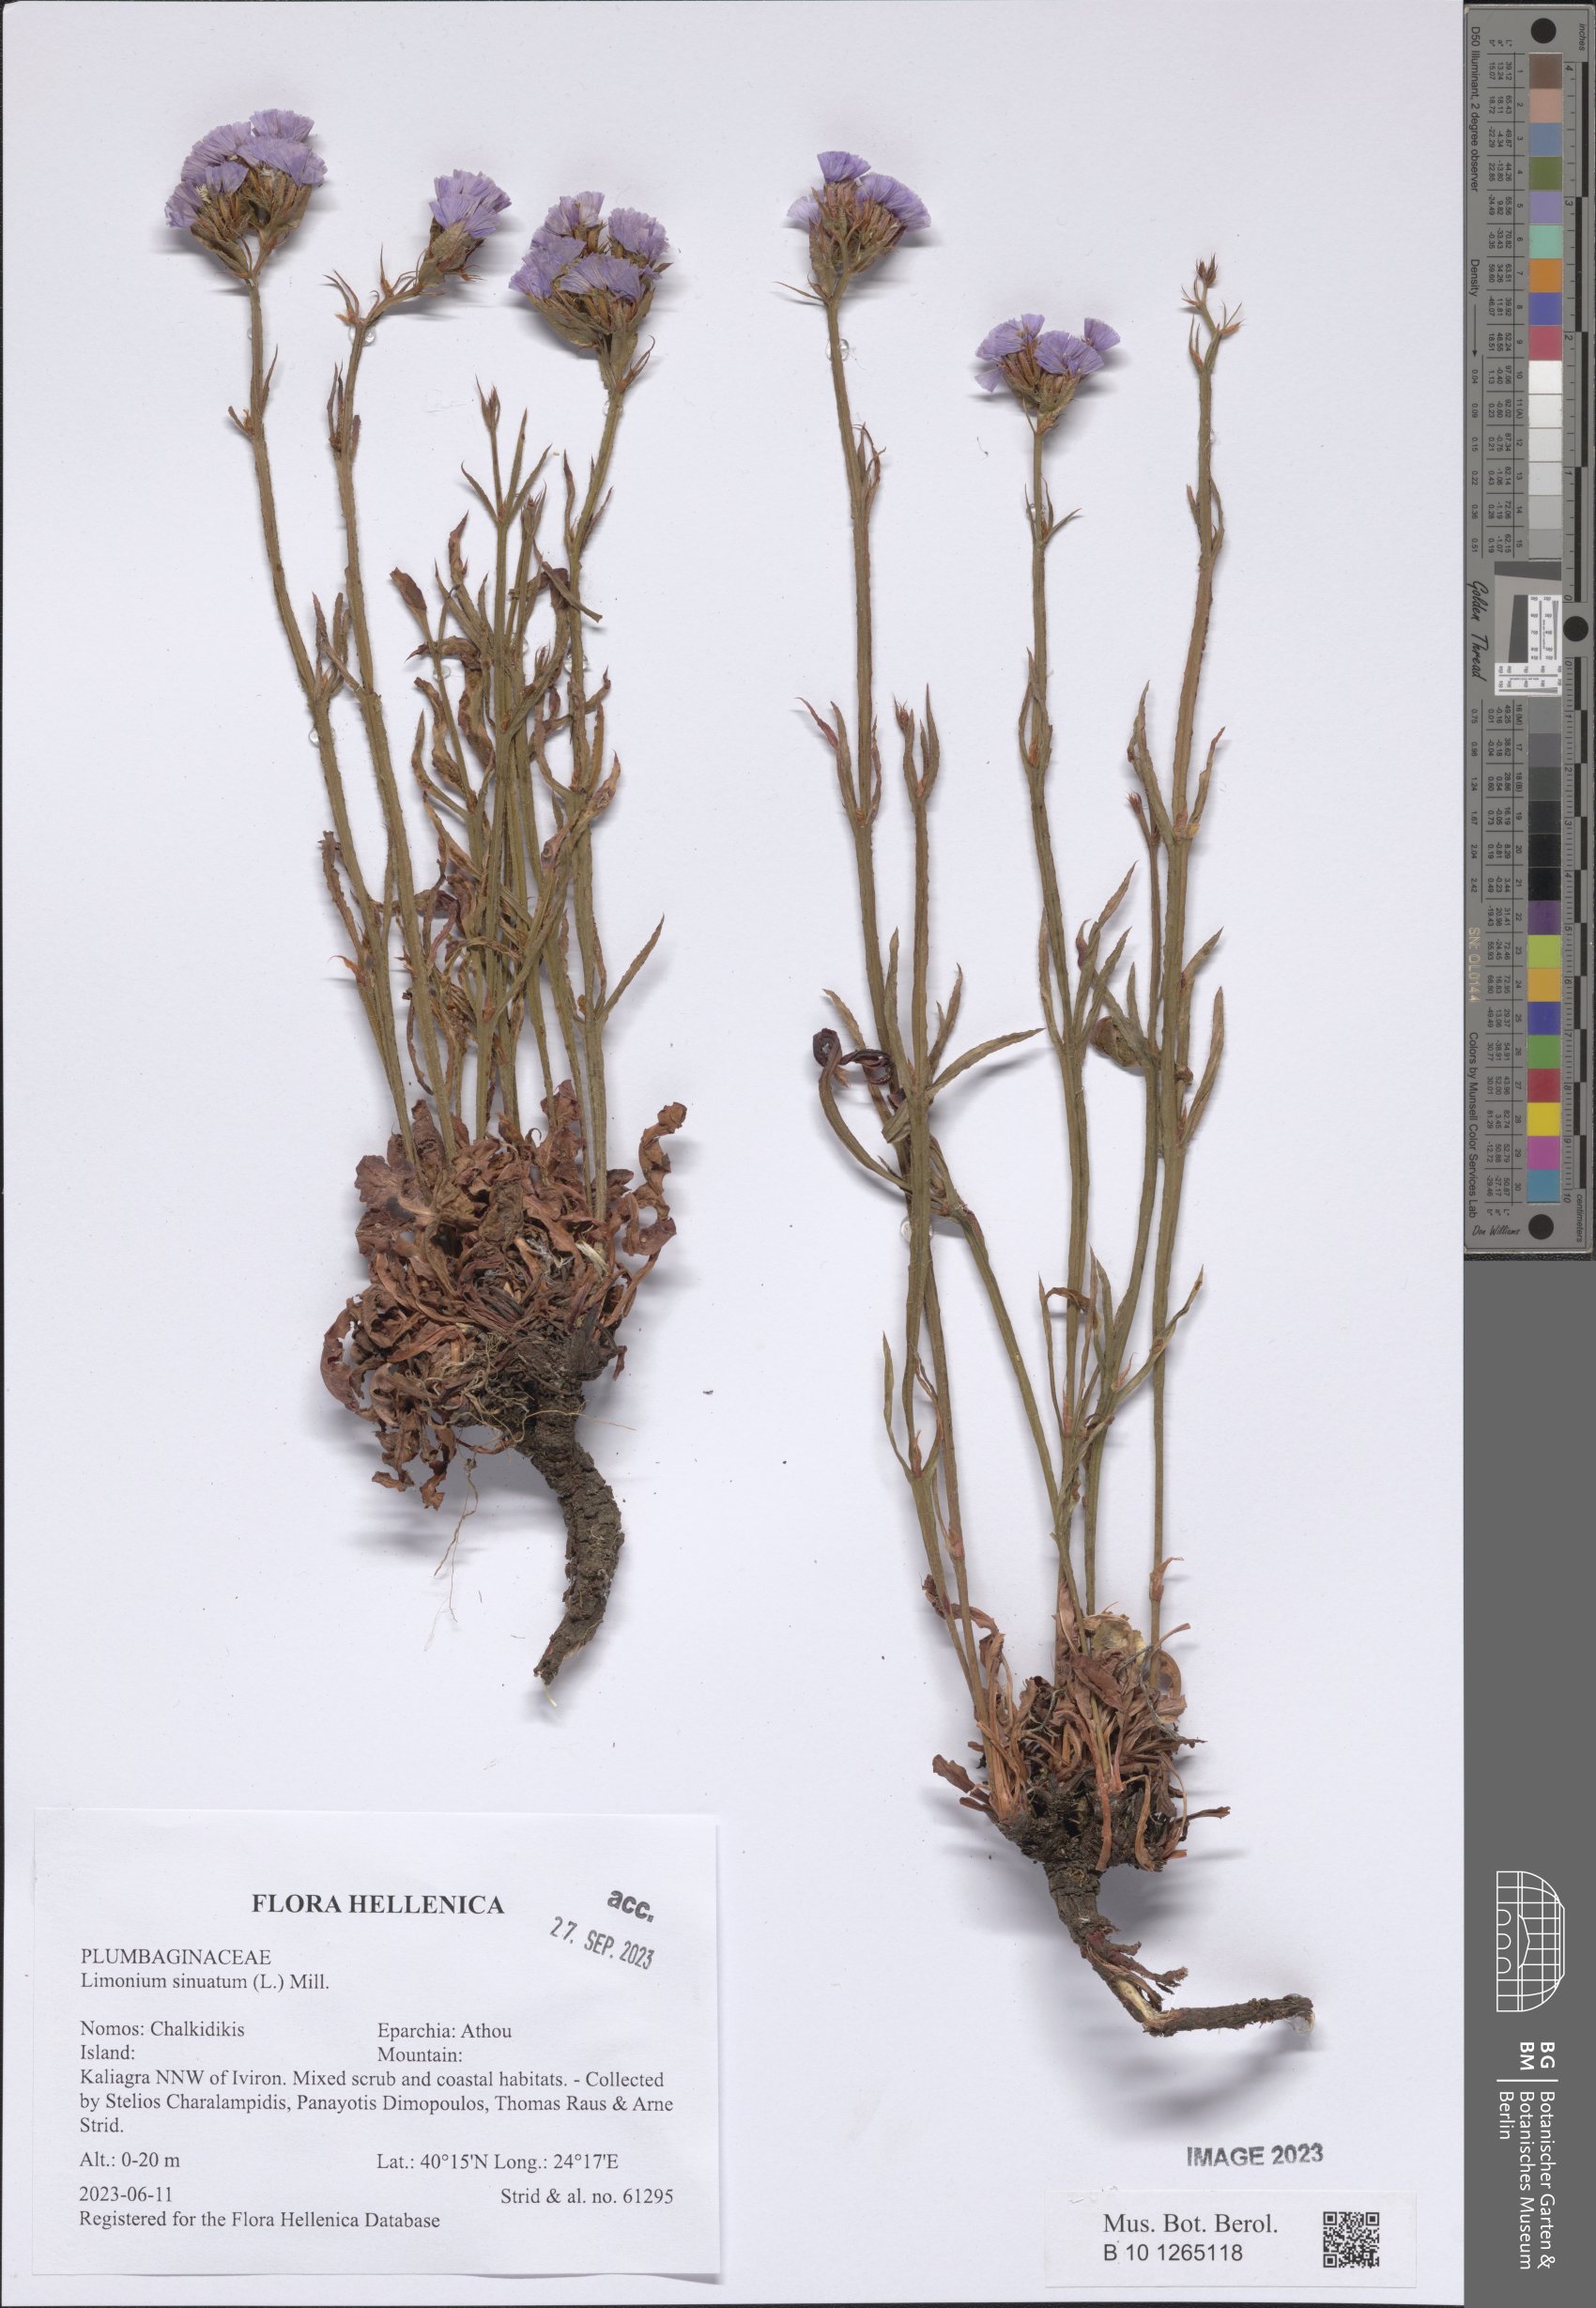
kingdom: Plantae
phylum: Tracheophyta
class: Magnoliopsida
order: Caryophyllales
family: Plumbaginaceae
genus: Limonium
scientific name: Limonium sinuatum
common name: Statice
